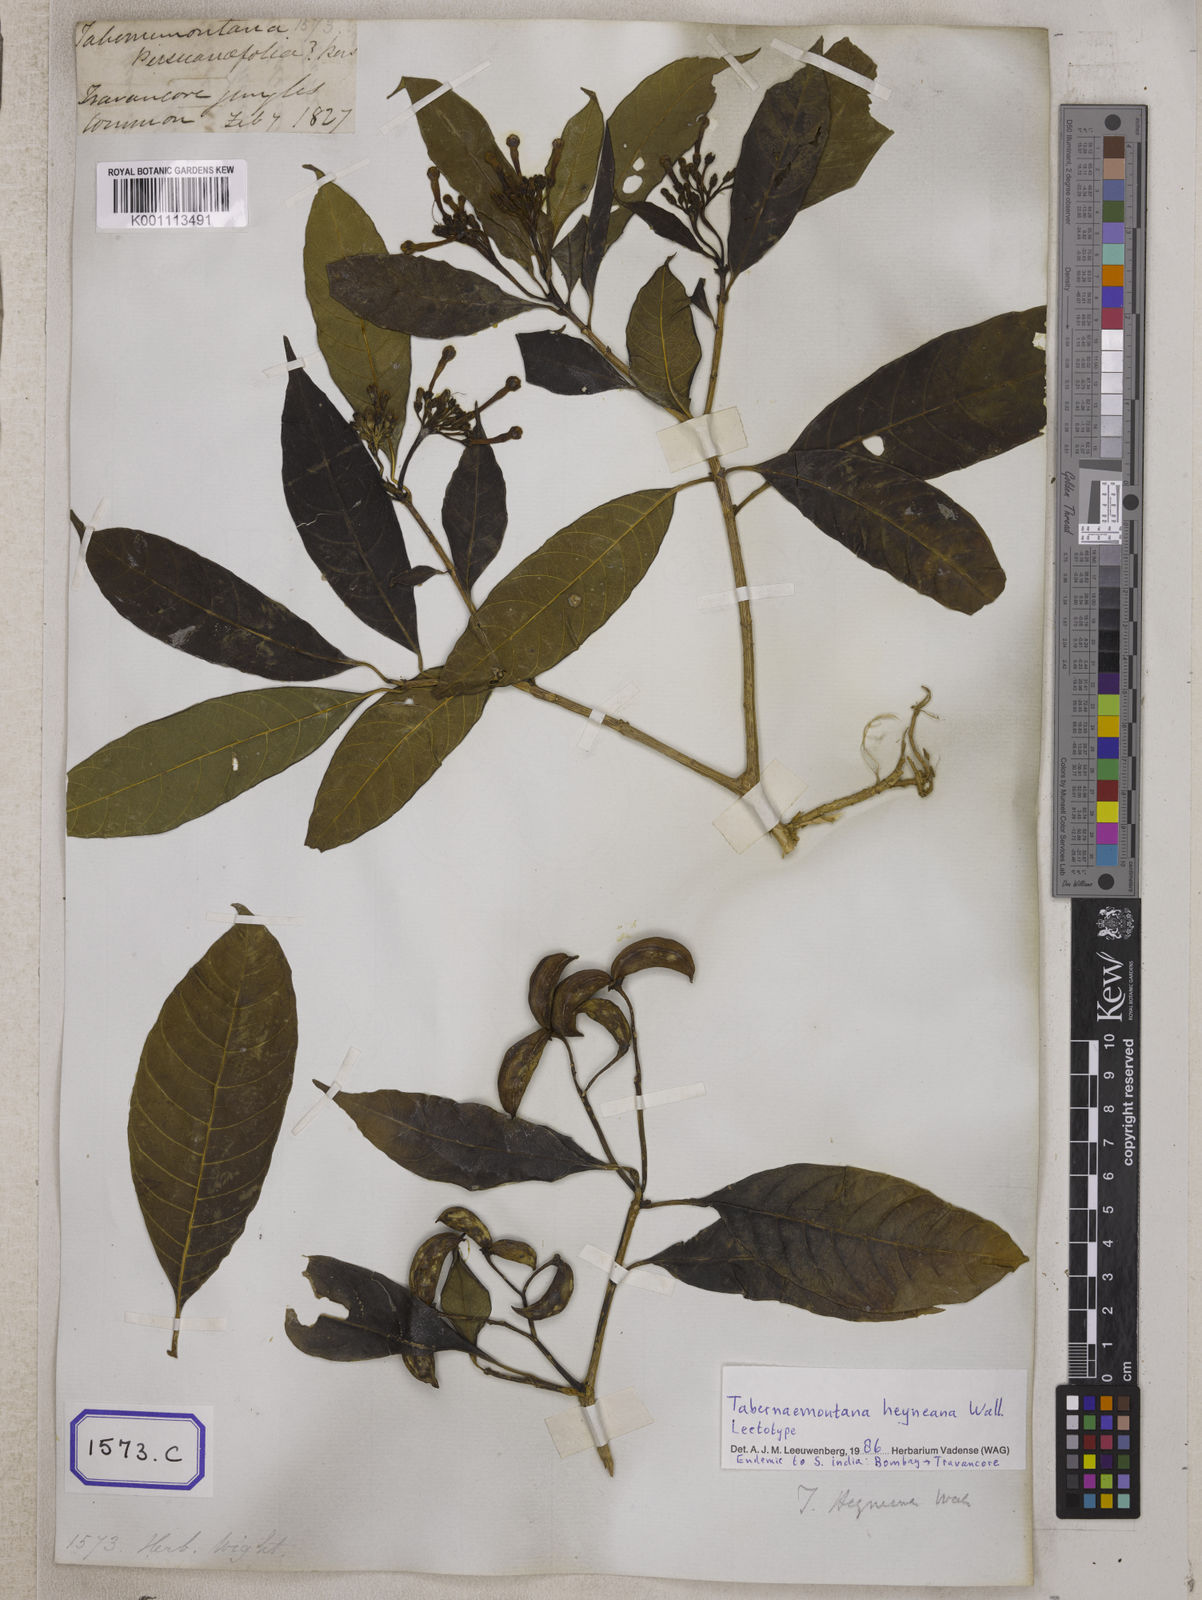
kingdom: Plantae
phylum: Tracheophyta
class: Magnoliopsida
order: Gentianales
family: Apocynaceae
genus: Tabernaemontana
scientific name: Tabernaemontana alternifolia
